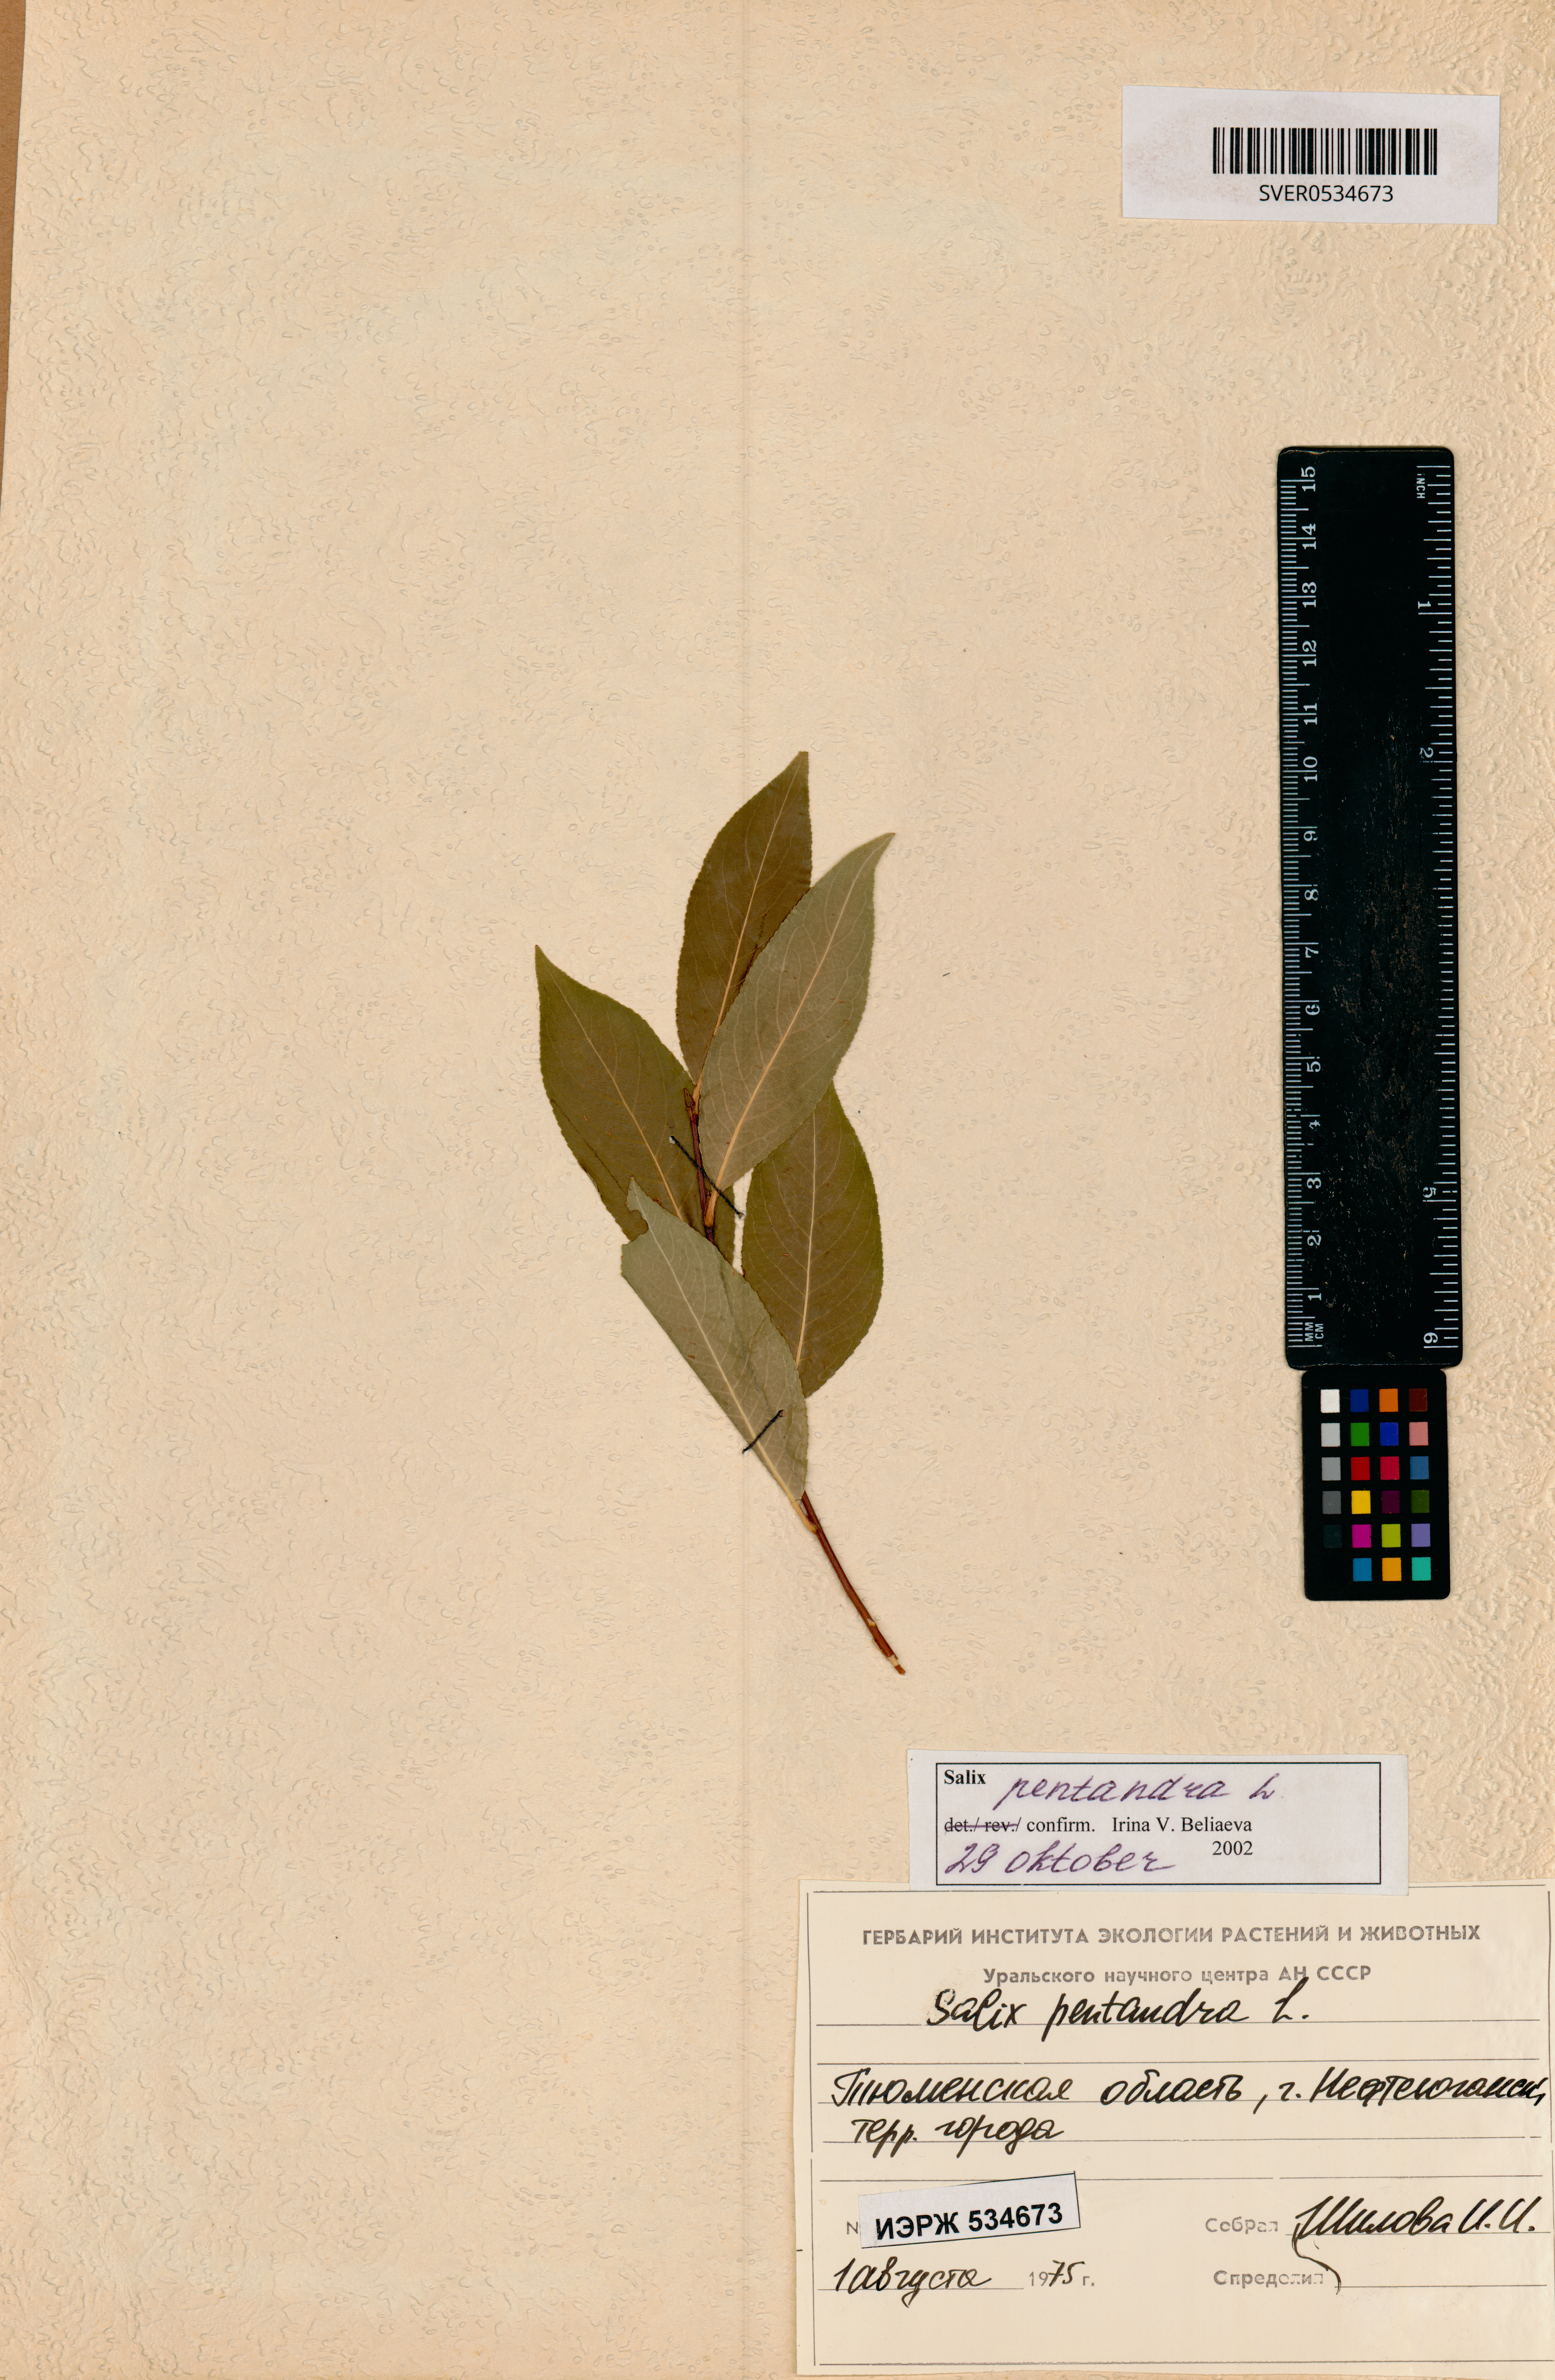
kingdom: Plantae
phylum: Tracheophyta
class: Magnoliopsida
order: Malpighiales
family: Salicaceae
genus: Salix
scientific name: Salix pentandra
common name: Bay willow
